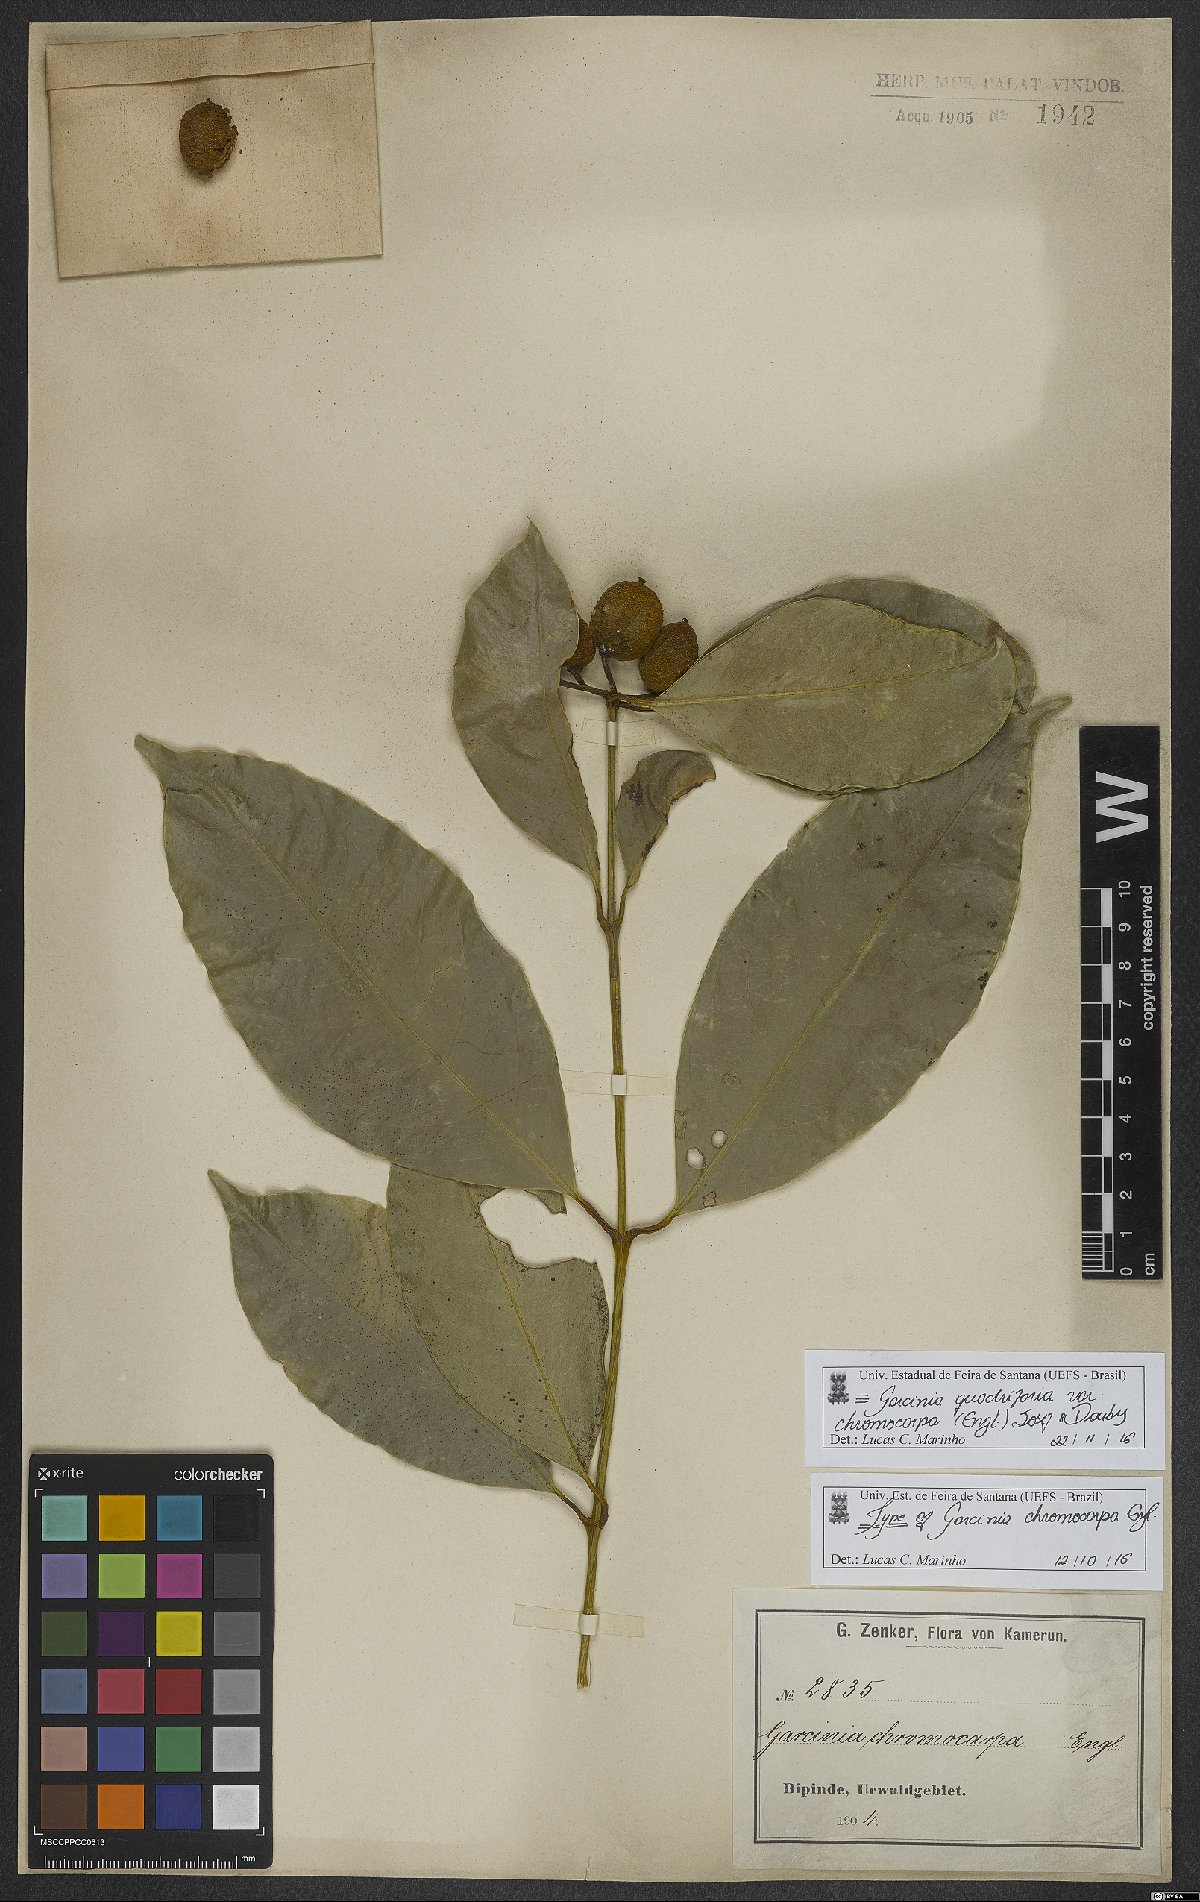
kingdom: Plantae
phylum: Tracheophyta
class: Magnoliopsida
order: Malpighiales
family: Clusiaceae
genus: Garcinia
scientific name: Garcinia quadrifaria
